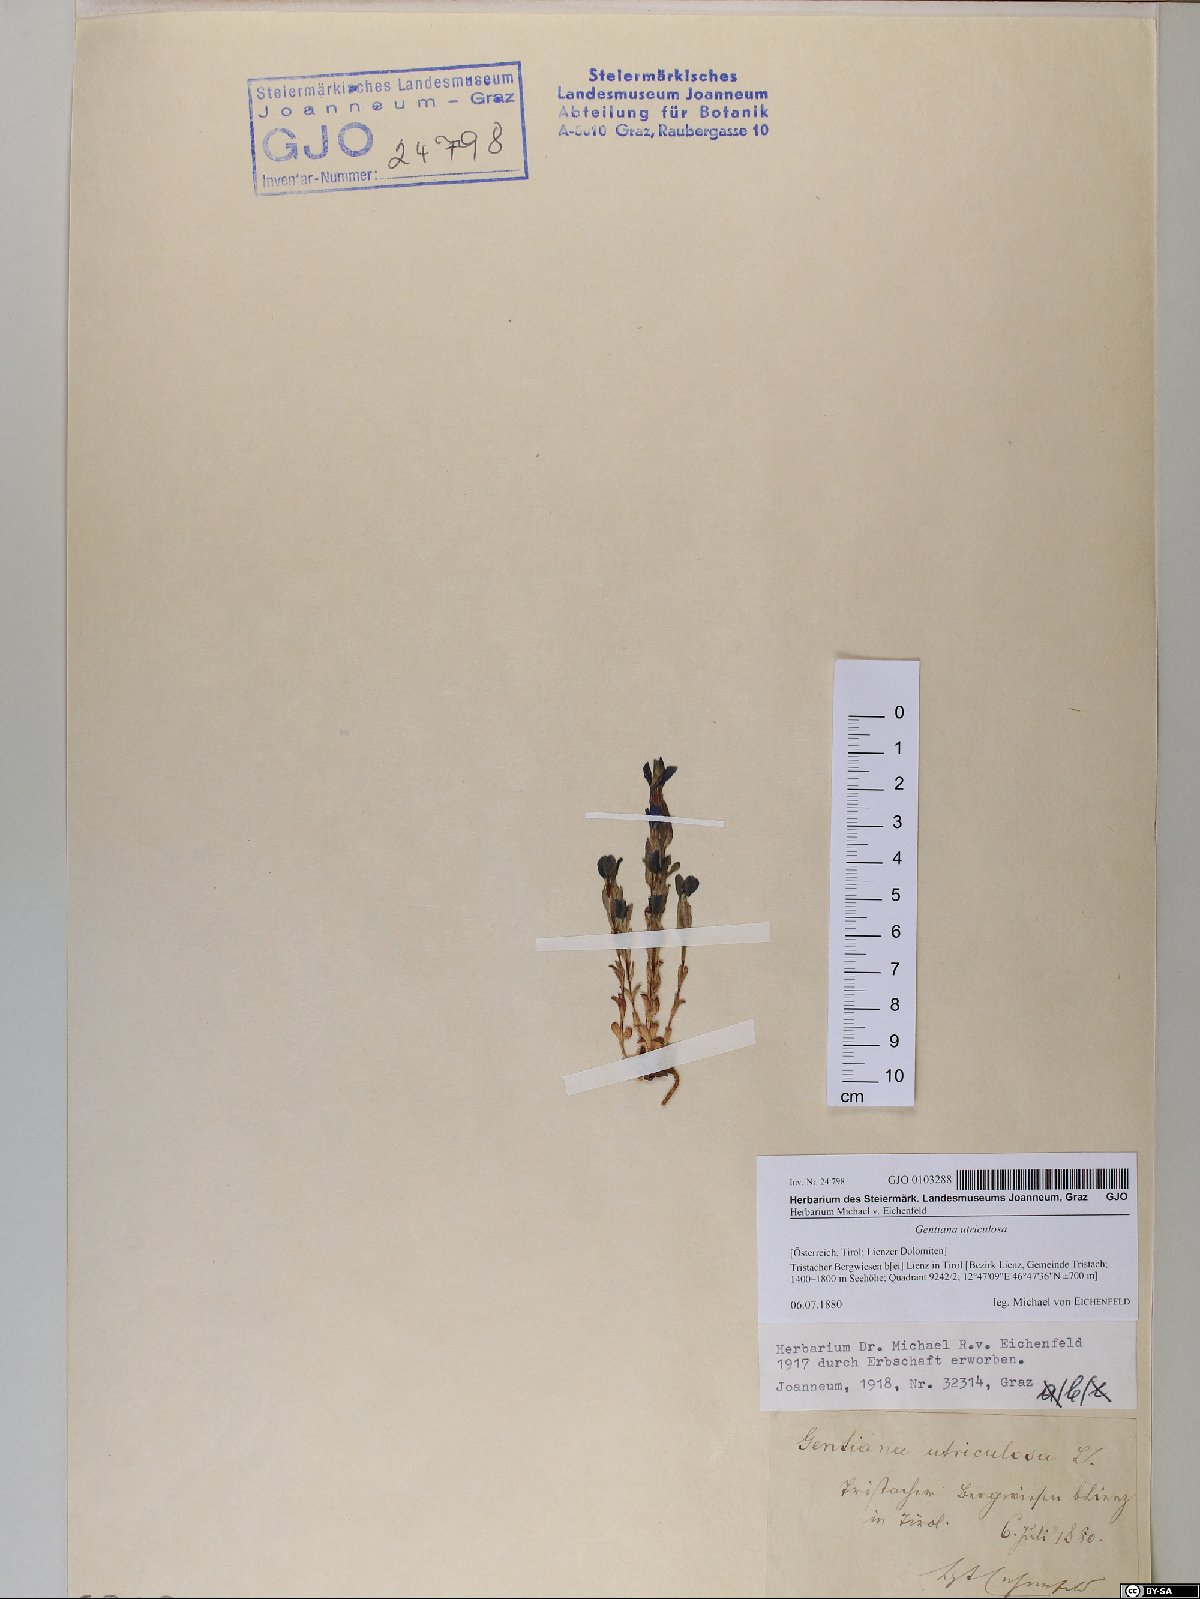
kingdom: Plantae
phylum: Tracheophyta
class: Magnoliopsida
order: Gentianales
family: Gentianaceae
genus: Gentiana
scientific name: Gentiana utriculosa
